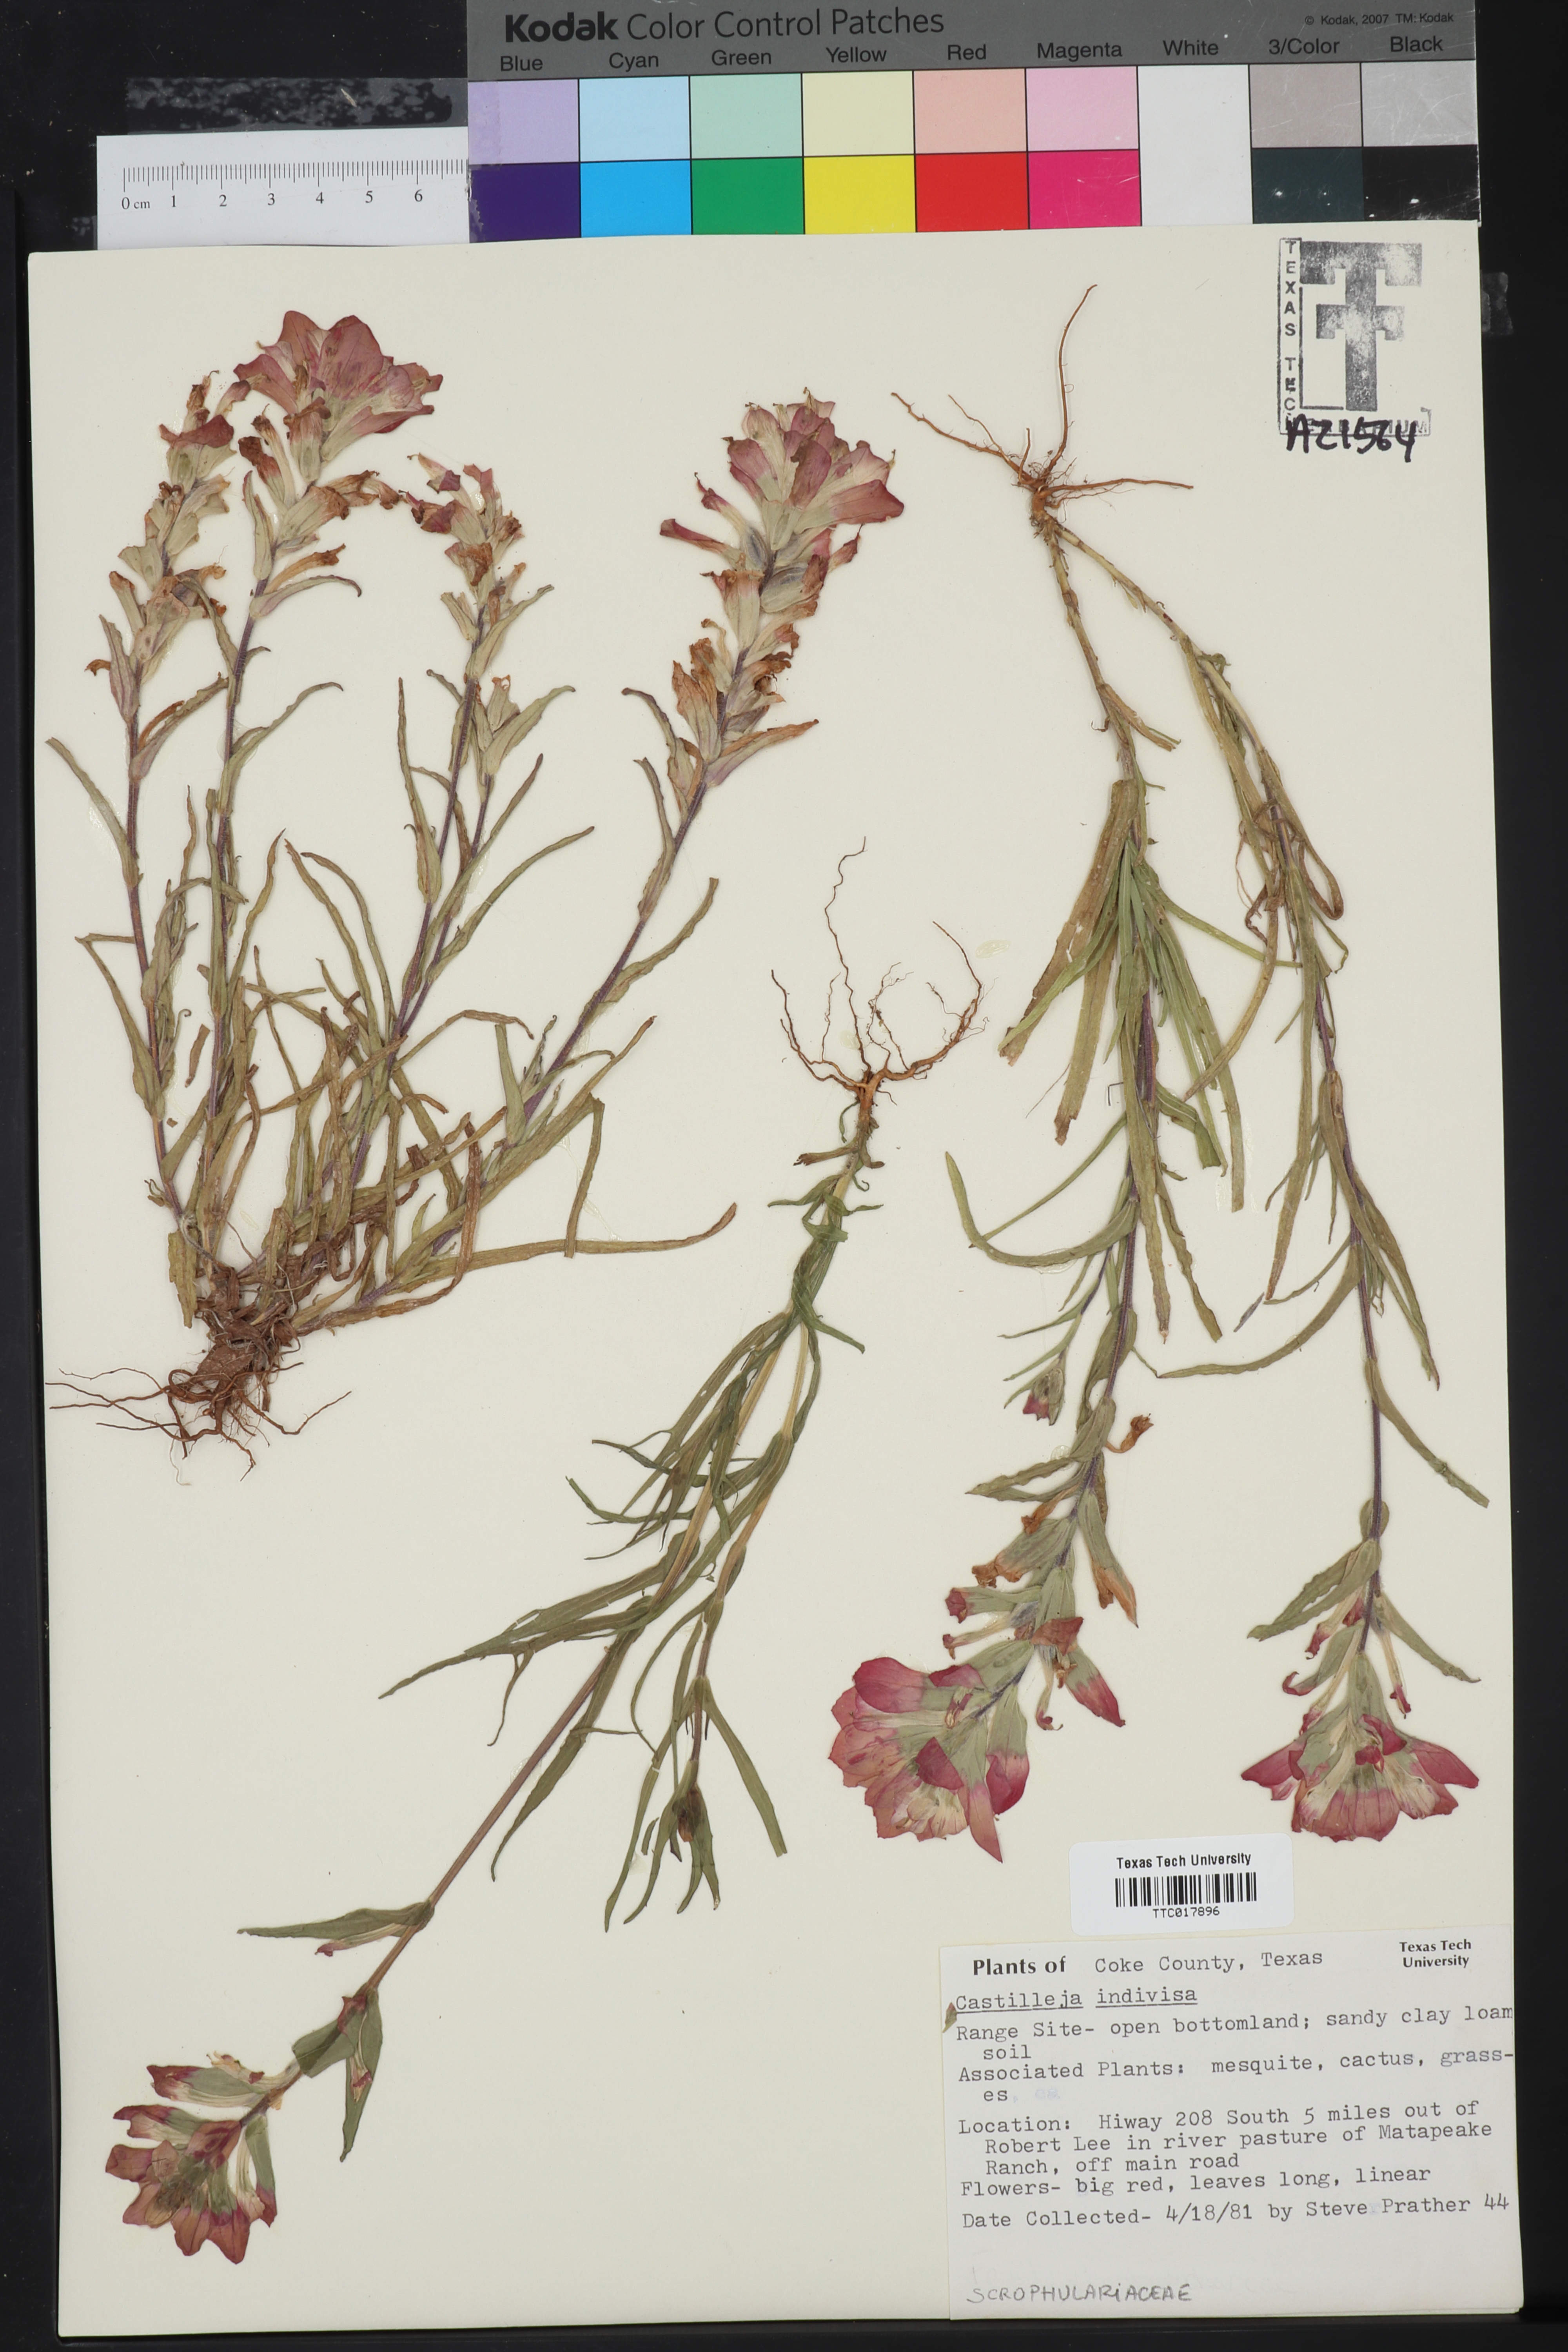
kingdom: Plantae
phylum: Tracheophyta
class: Magnoliopsida
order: Lamiales
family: Orobanchaceae
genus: Castilleja
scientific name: Castilleja indivisa
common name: Texas paintbrush
